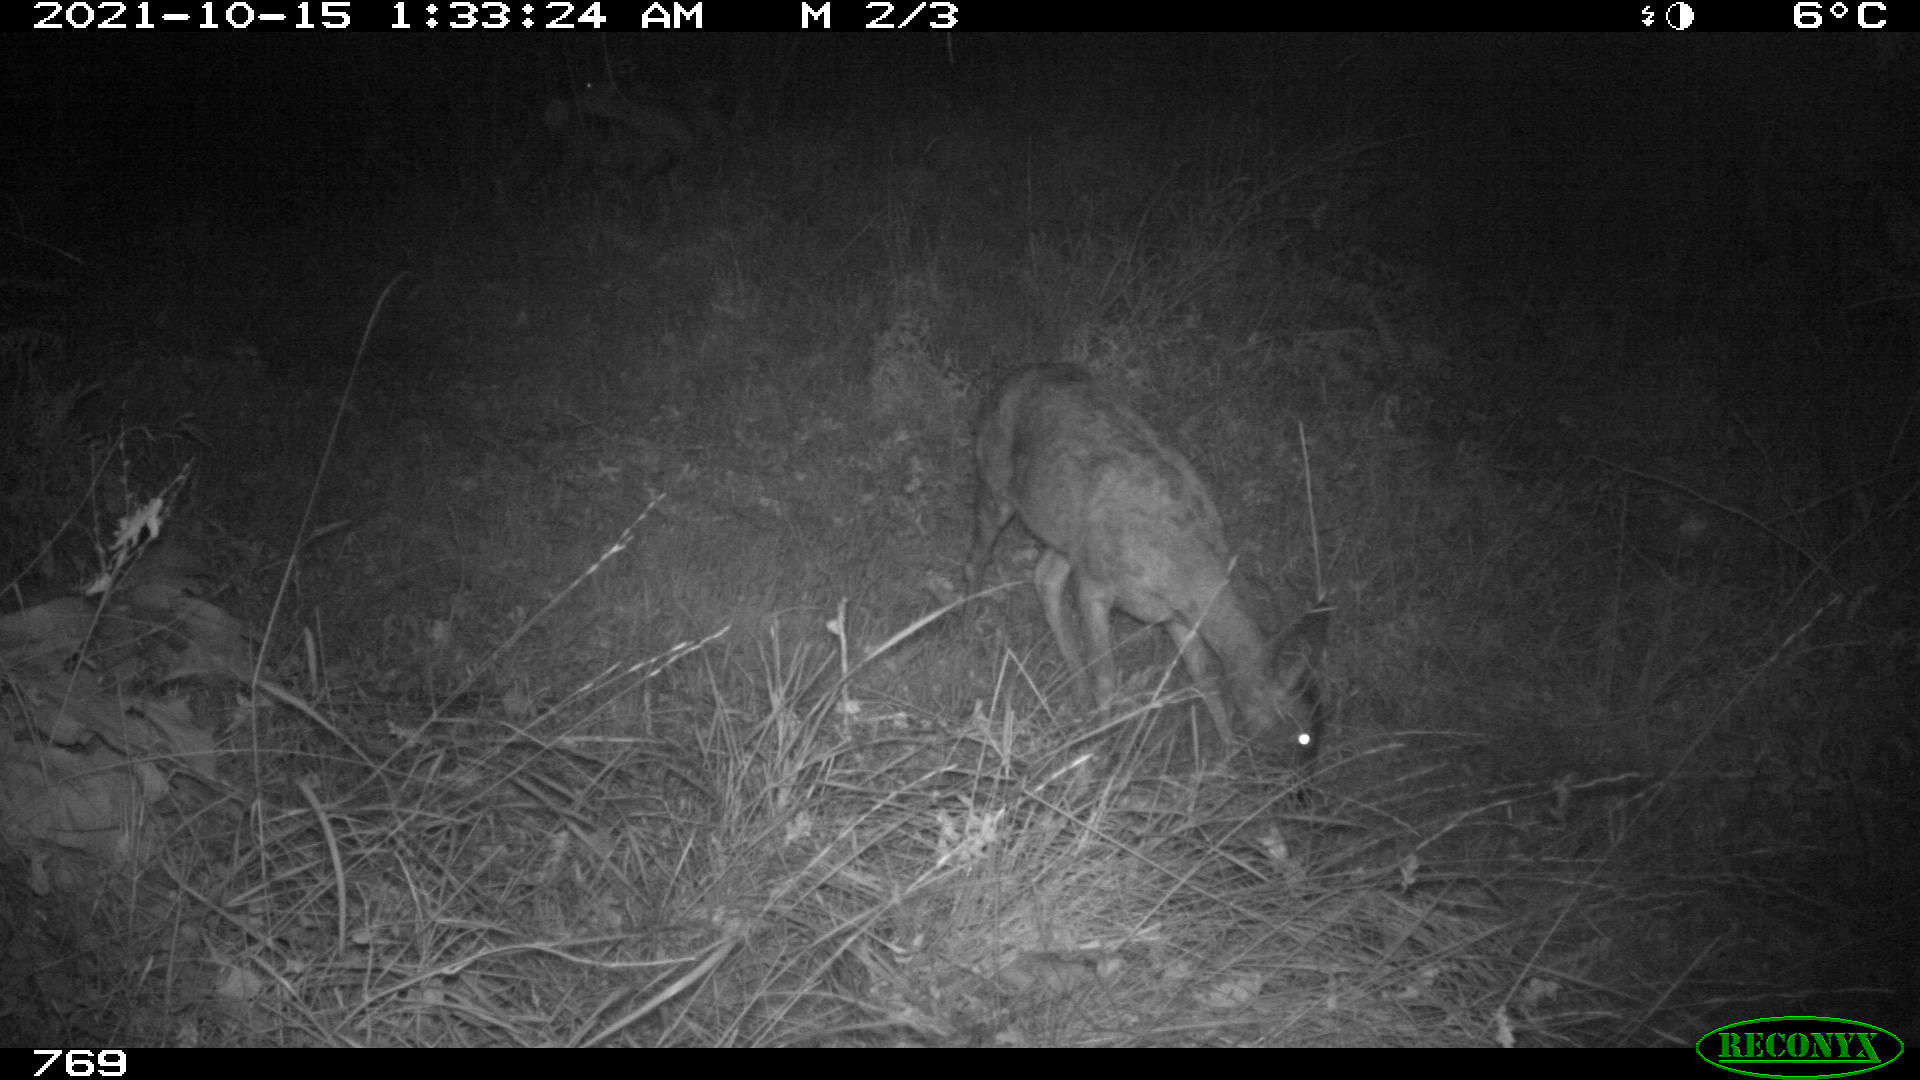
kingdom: Animalia
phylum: Chordata
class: Mammalia
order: Artiodactyla
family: Cervidae
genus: Capreolus
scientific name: Capreolus capreolus
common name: Western roe deer
